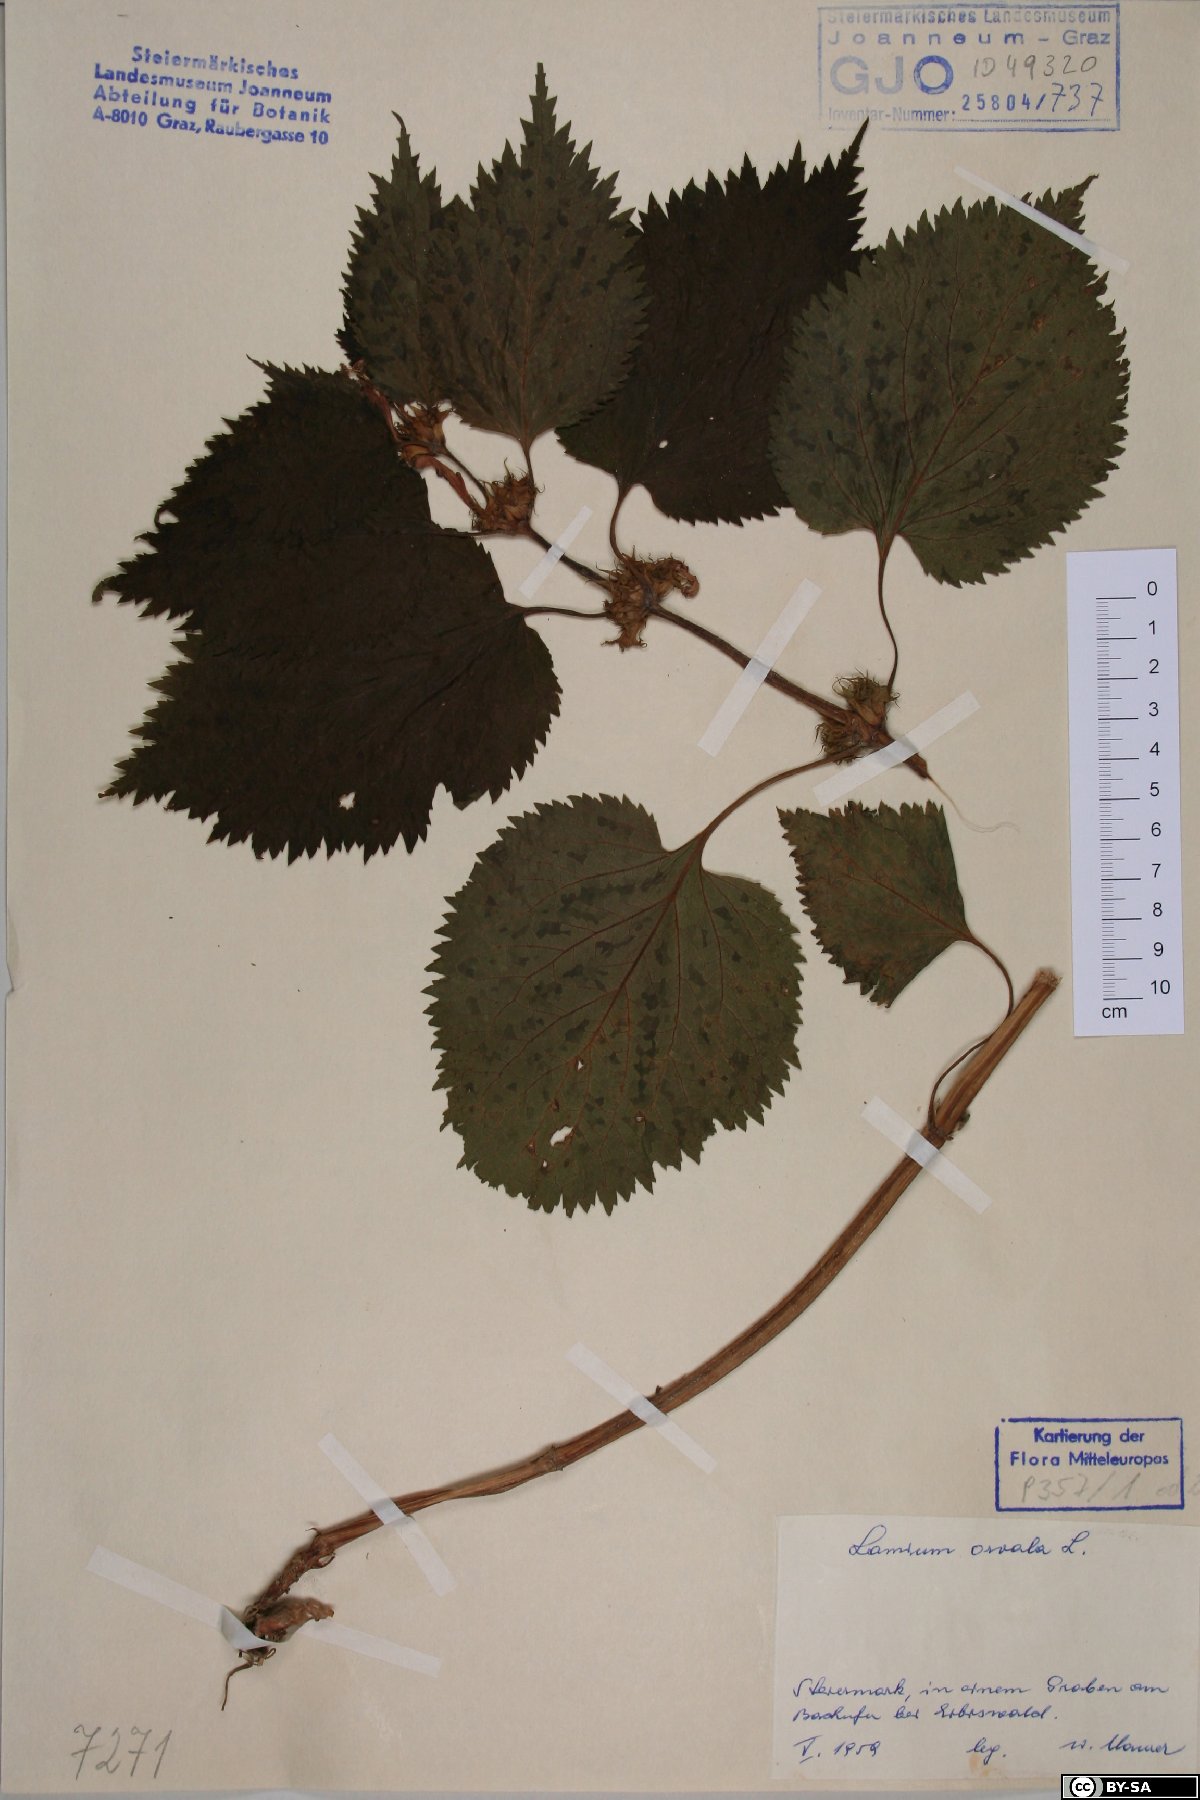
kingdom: Plantae
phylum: Tracheophyta
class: Magnoliopsida
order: Lamiales
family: Lamiaceae
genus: Lamium
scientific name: Lamium orvala
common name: Balm-leaved archangel
